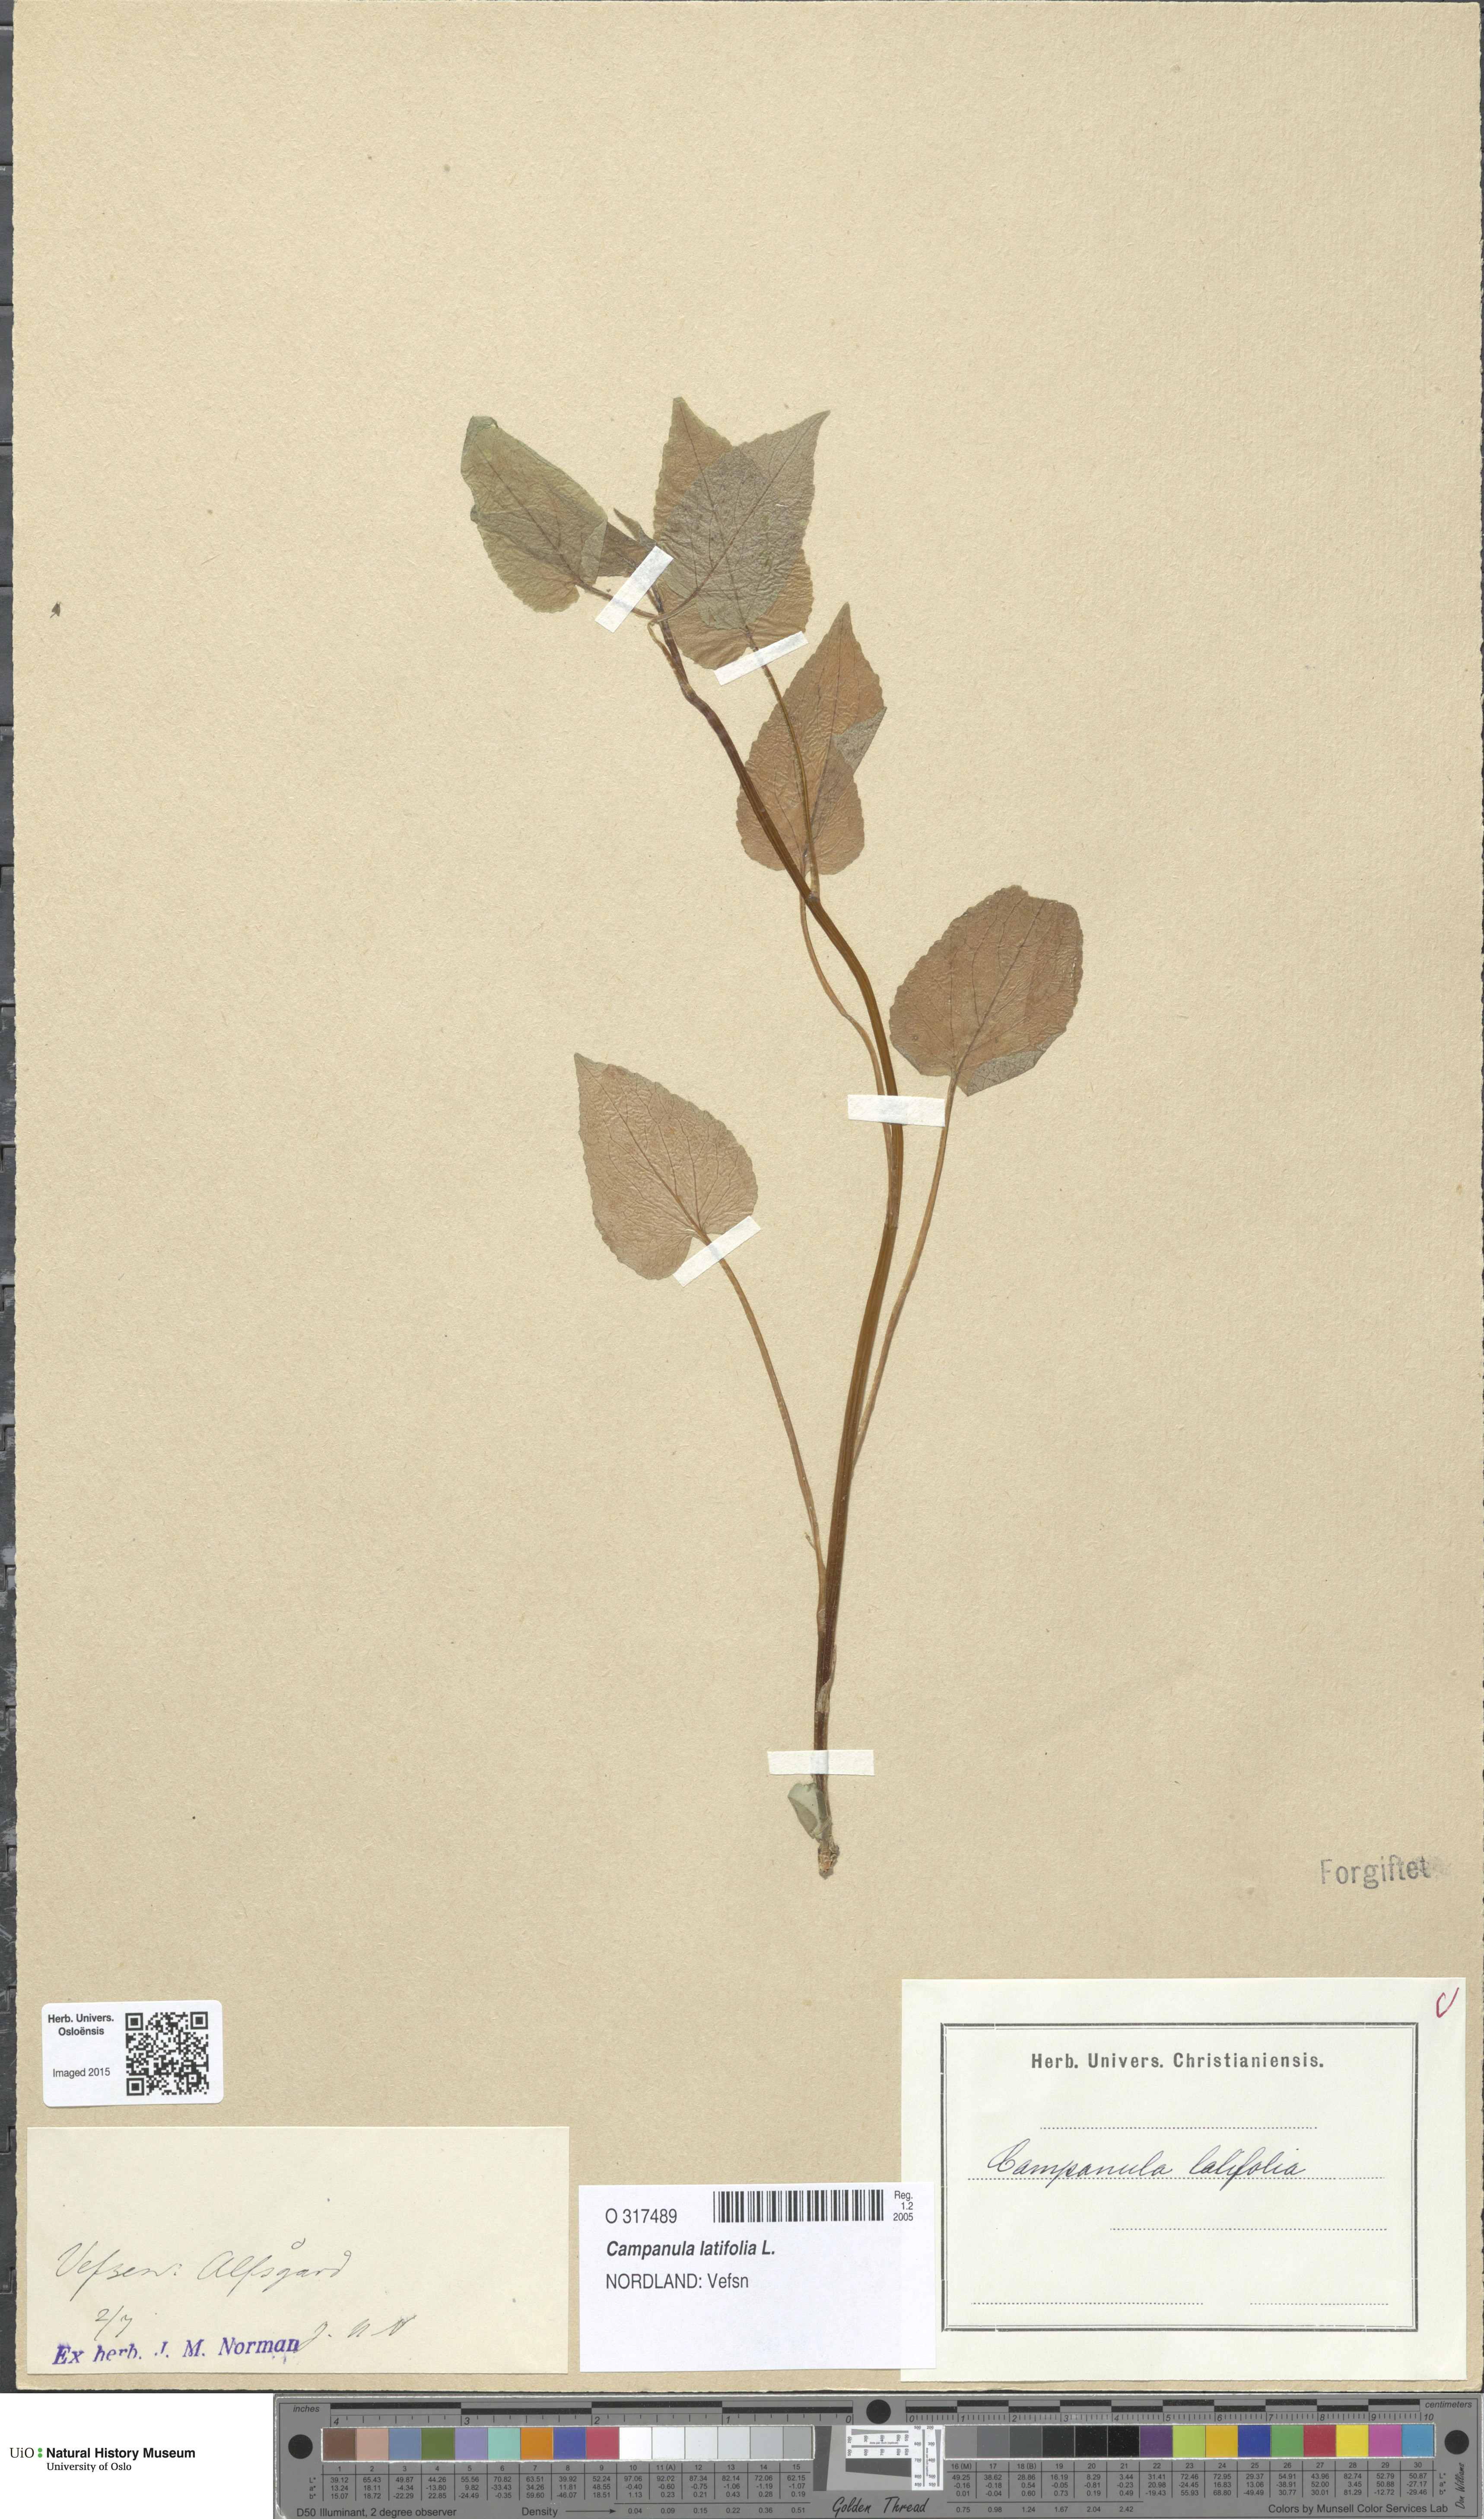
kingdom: Plantae
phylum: Tracheophyta
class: Magnoliopsida
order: Asterales
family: Campanulaceae
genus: Campanula
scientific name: Campanula latifolia
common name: Giant bellflower
